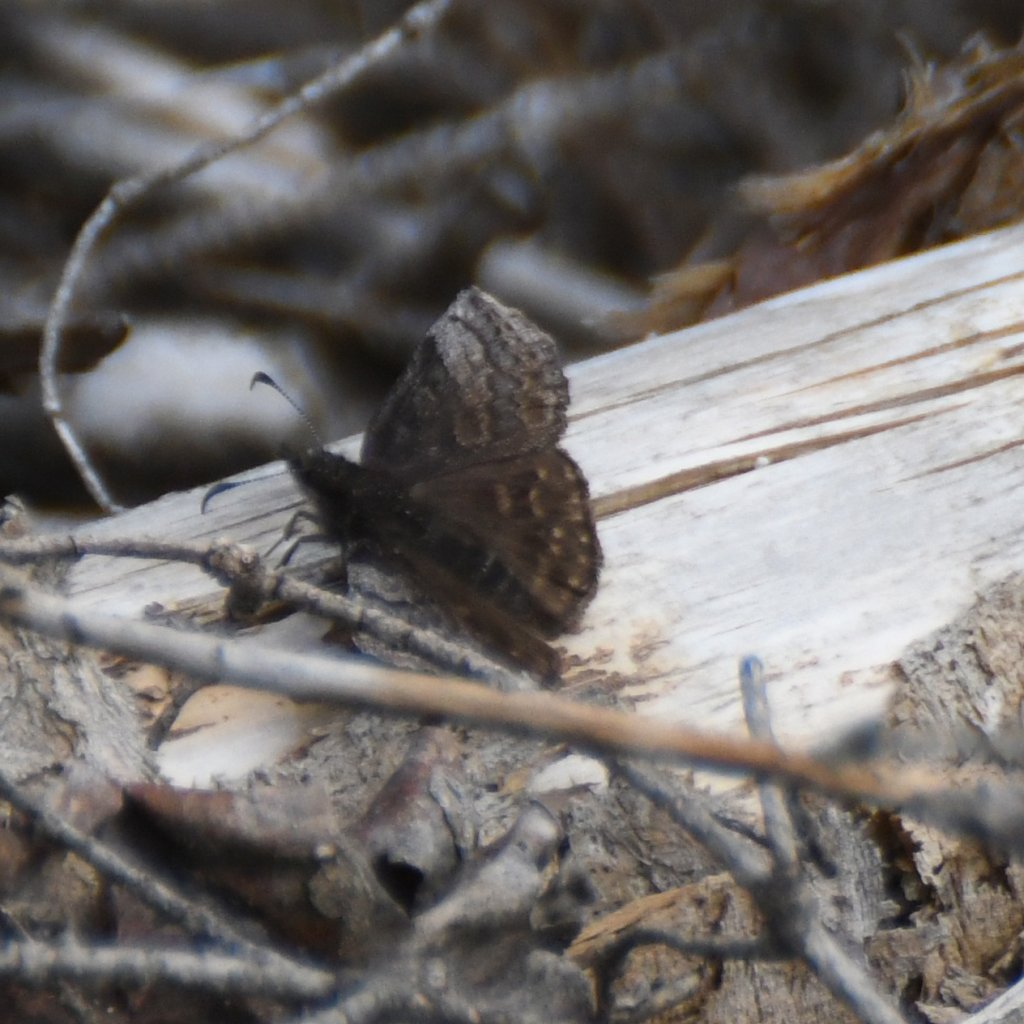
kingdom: Animalia
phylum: Arthropoda
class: Insecta
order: Lepidoptera
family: Hesperiidae
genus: Erynnis
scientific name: Erynnis icelus
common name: Dreamy Duskywing
